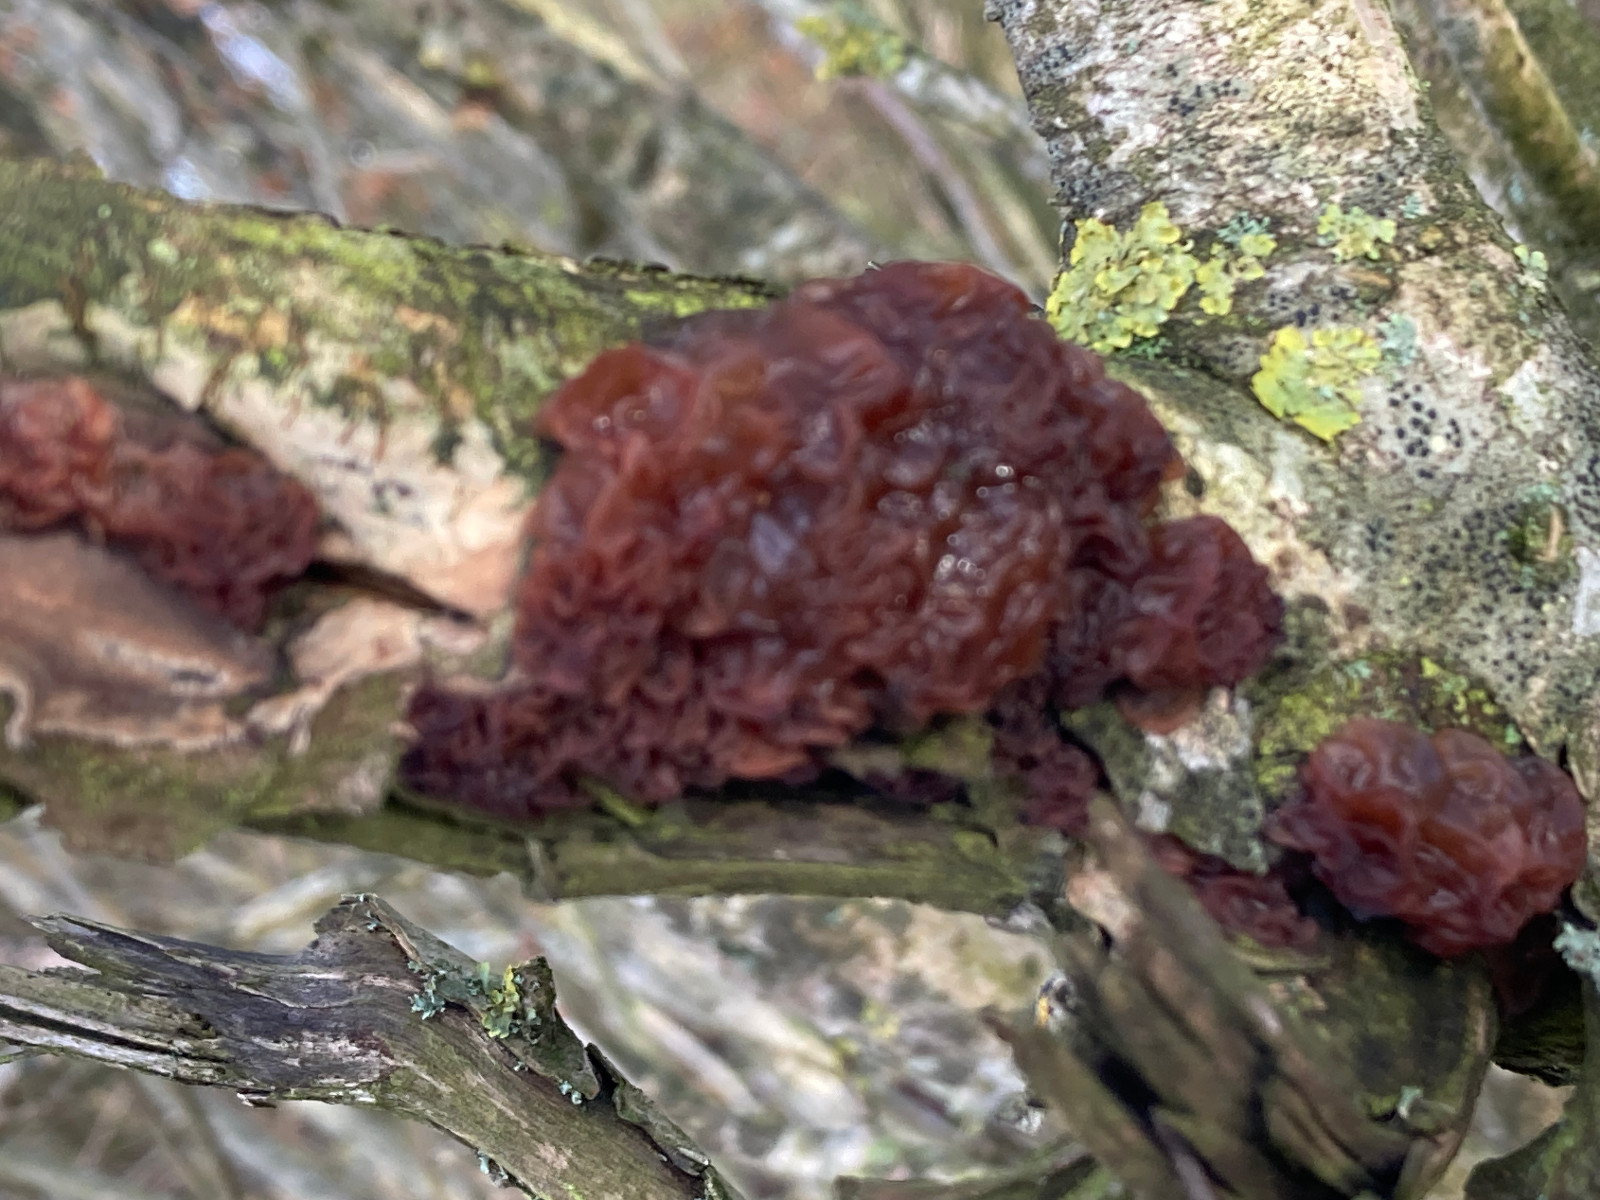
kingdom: Fungi
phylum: Basidiomycota
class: Tremellomycetes
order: Tremellales
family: Tremellaceae
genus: Phaeotremella
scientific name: Phaeotremella frondosa
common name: kæmpe-bævresvamp
